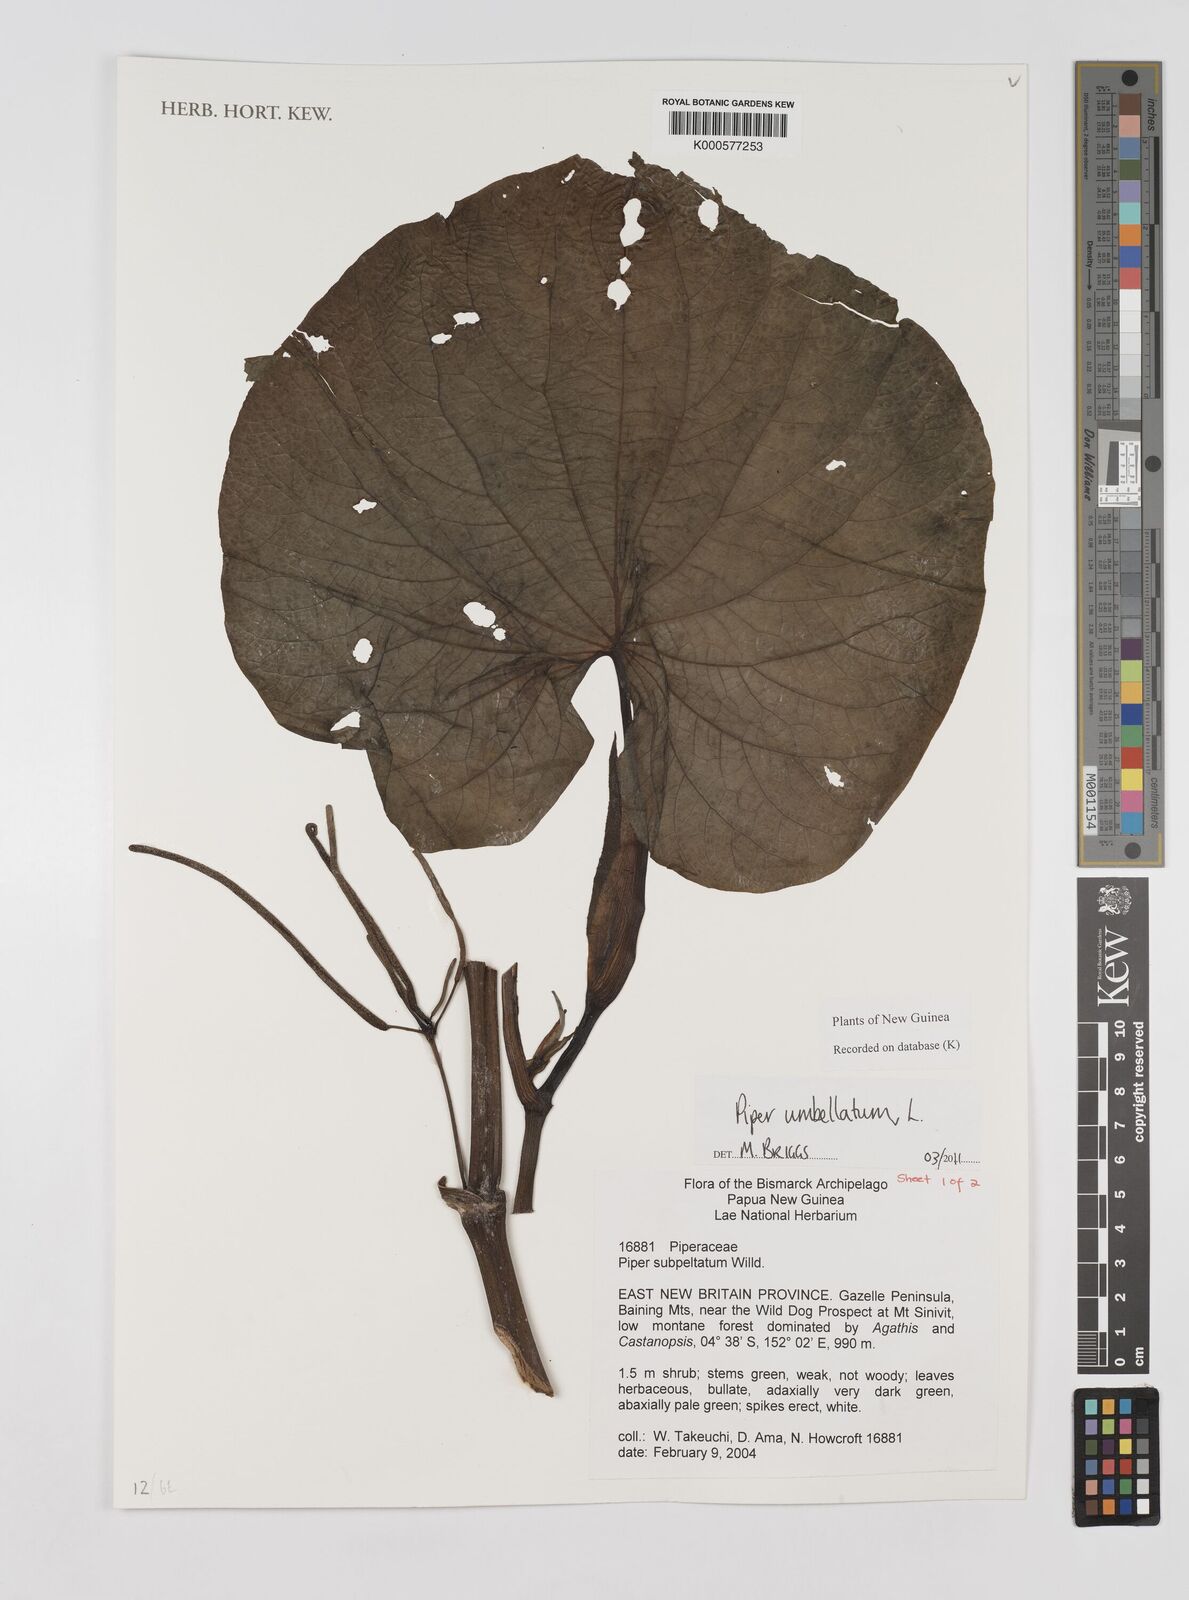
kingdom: Plantae
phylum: Tracheophyta
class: Magnoliopsida
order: Piperales
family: Piperaceae
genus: Piper
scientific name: Piper umbellatum
